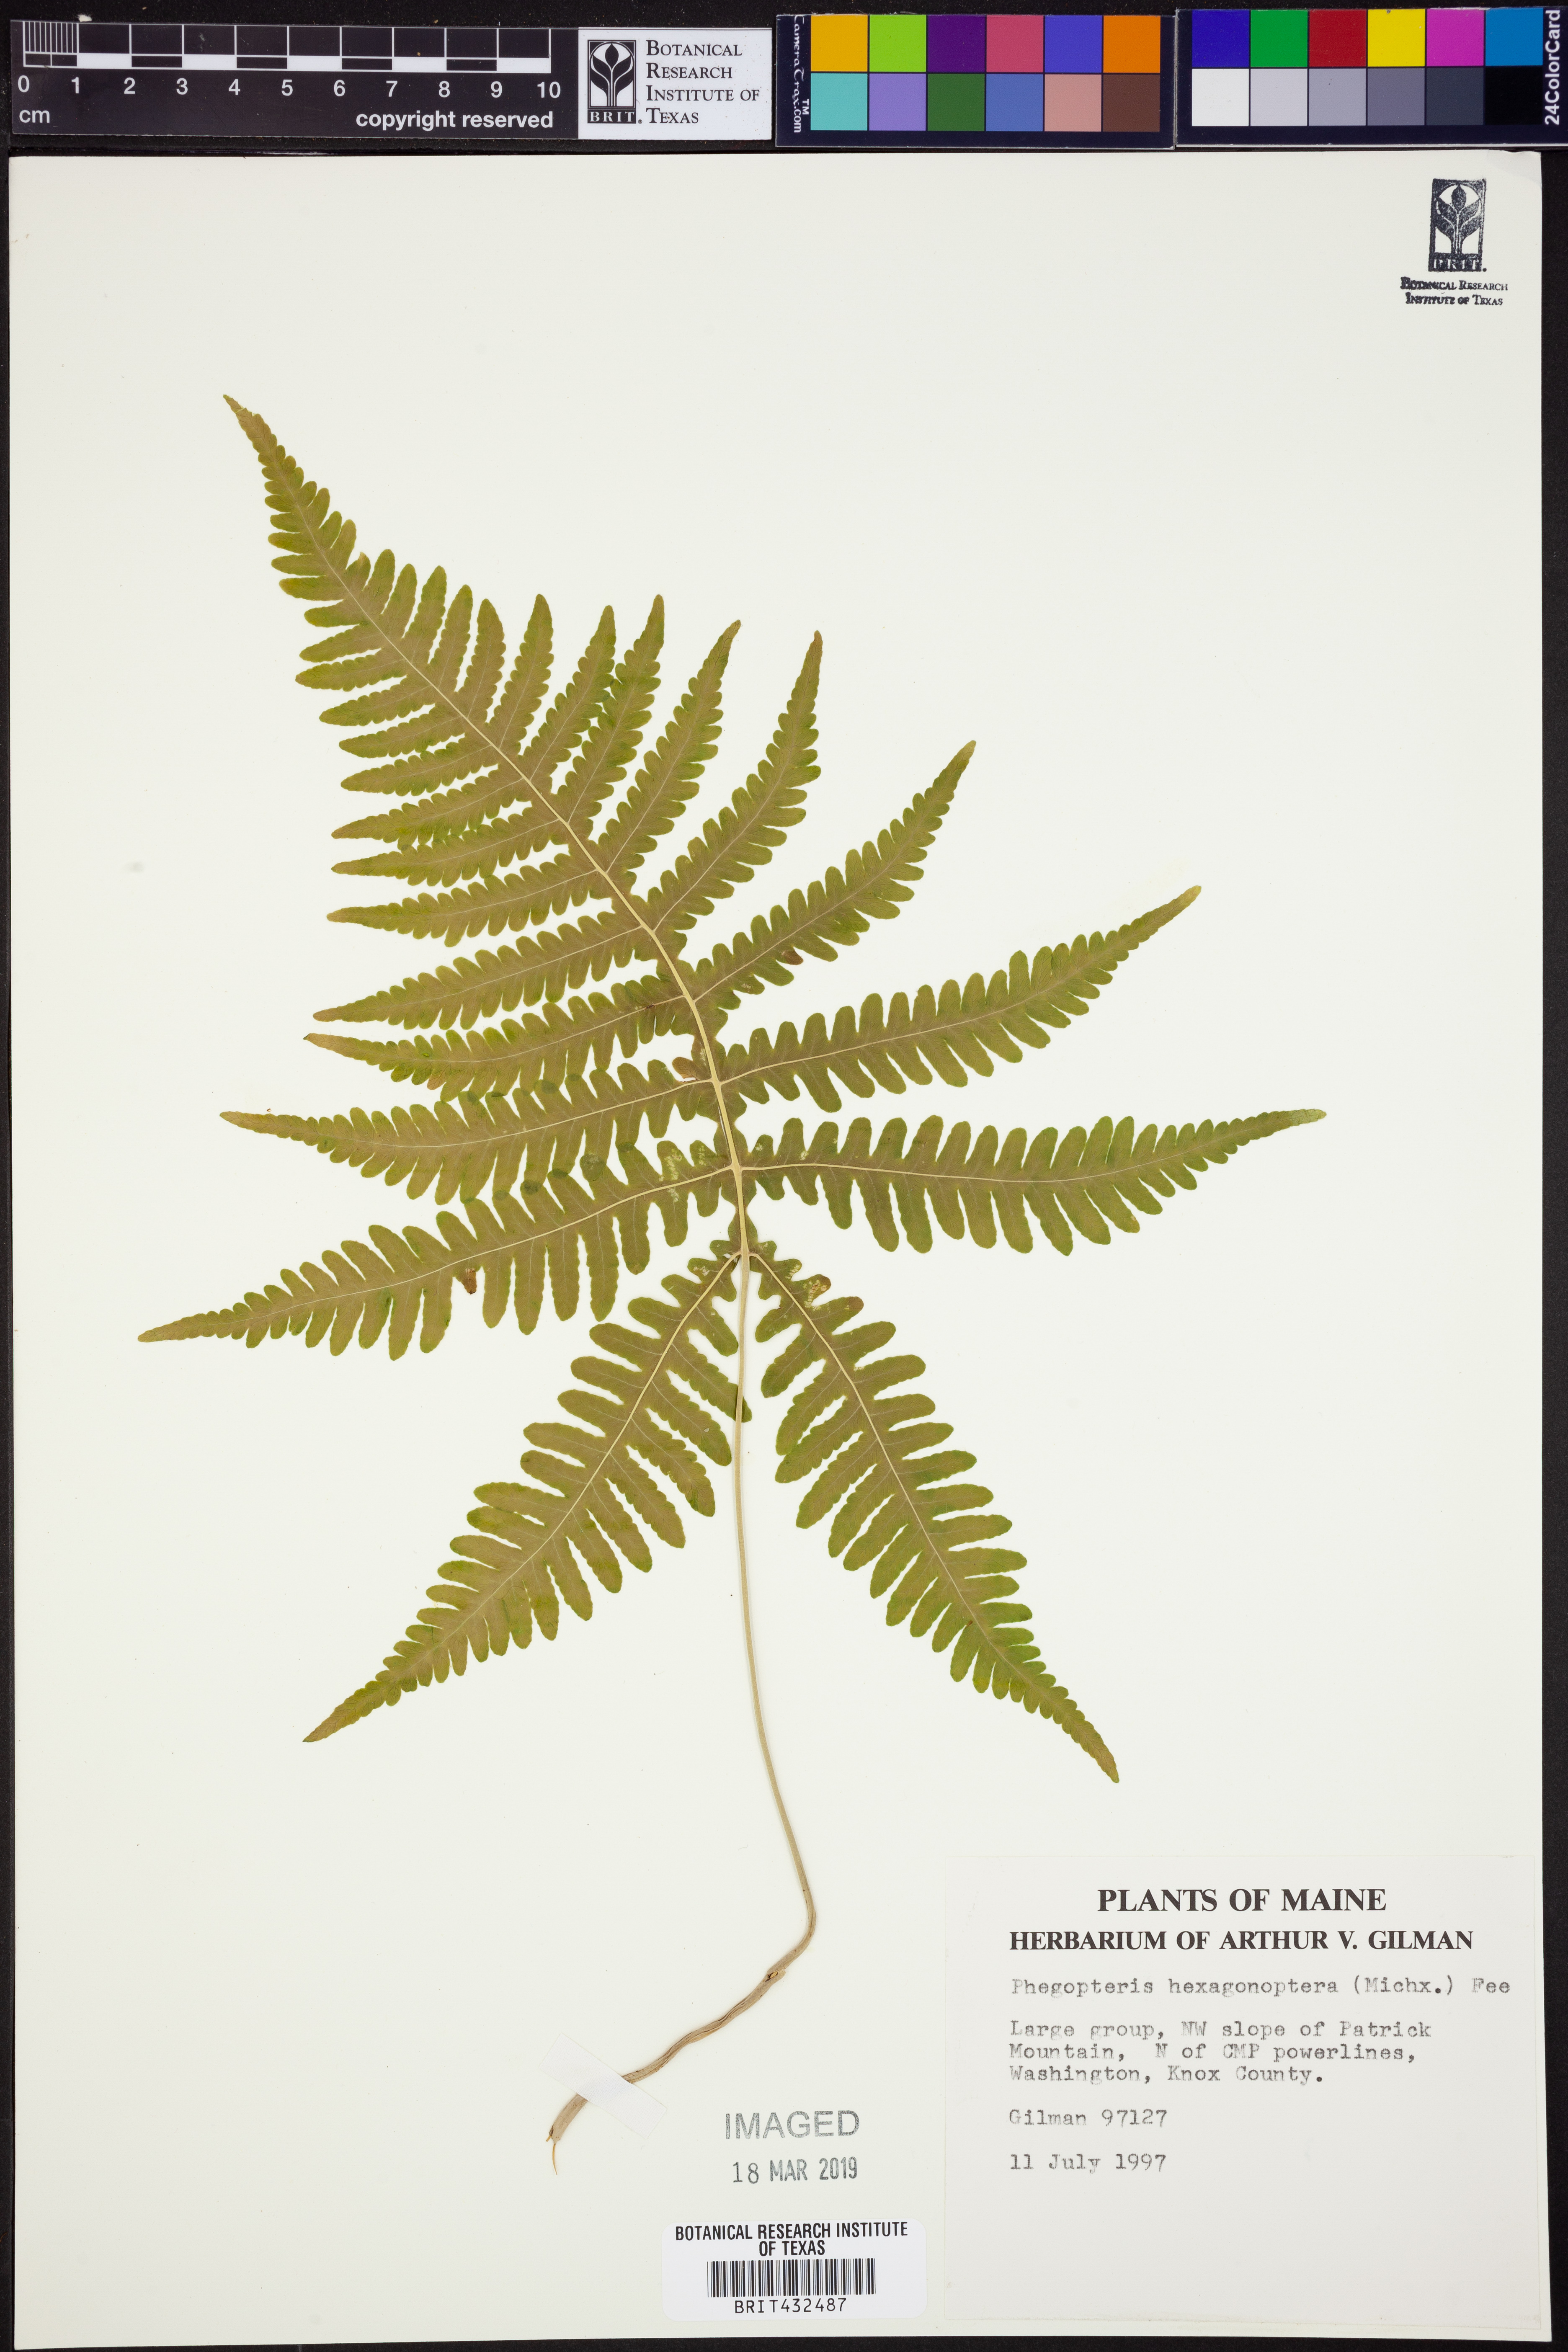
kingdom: Plantae
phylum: Tracheophyta
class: Polypodiopsida
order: Polypodiales
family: Thelypteridaceae
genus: Phegopteris
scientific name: Phegopteris hexagonoptera
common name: Broad beech fern
